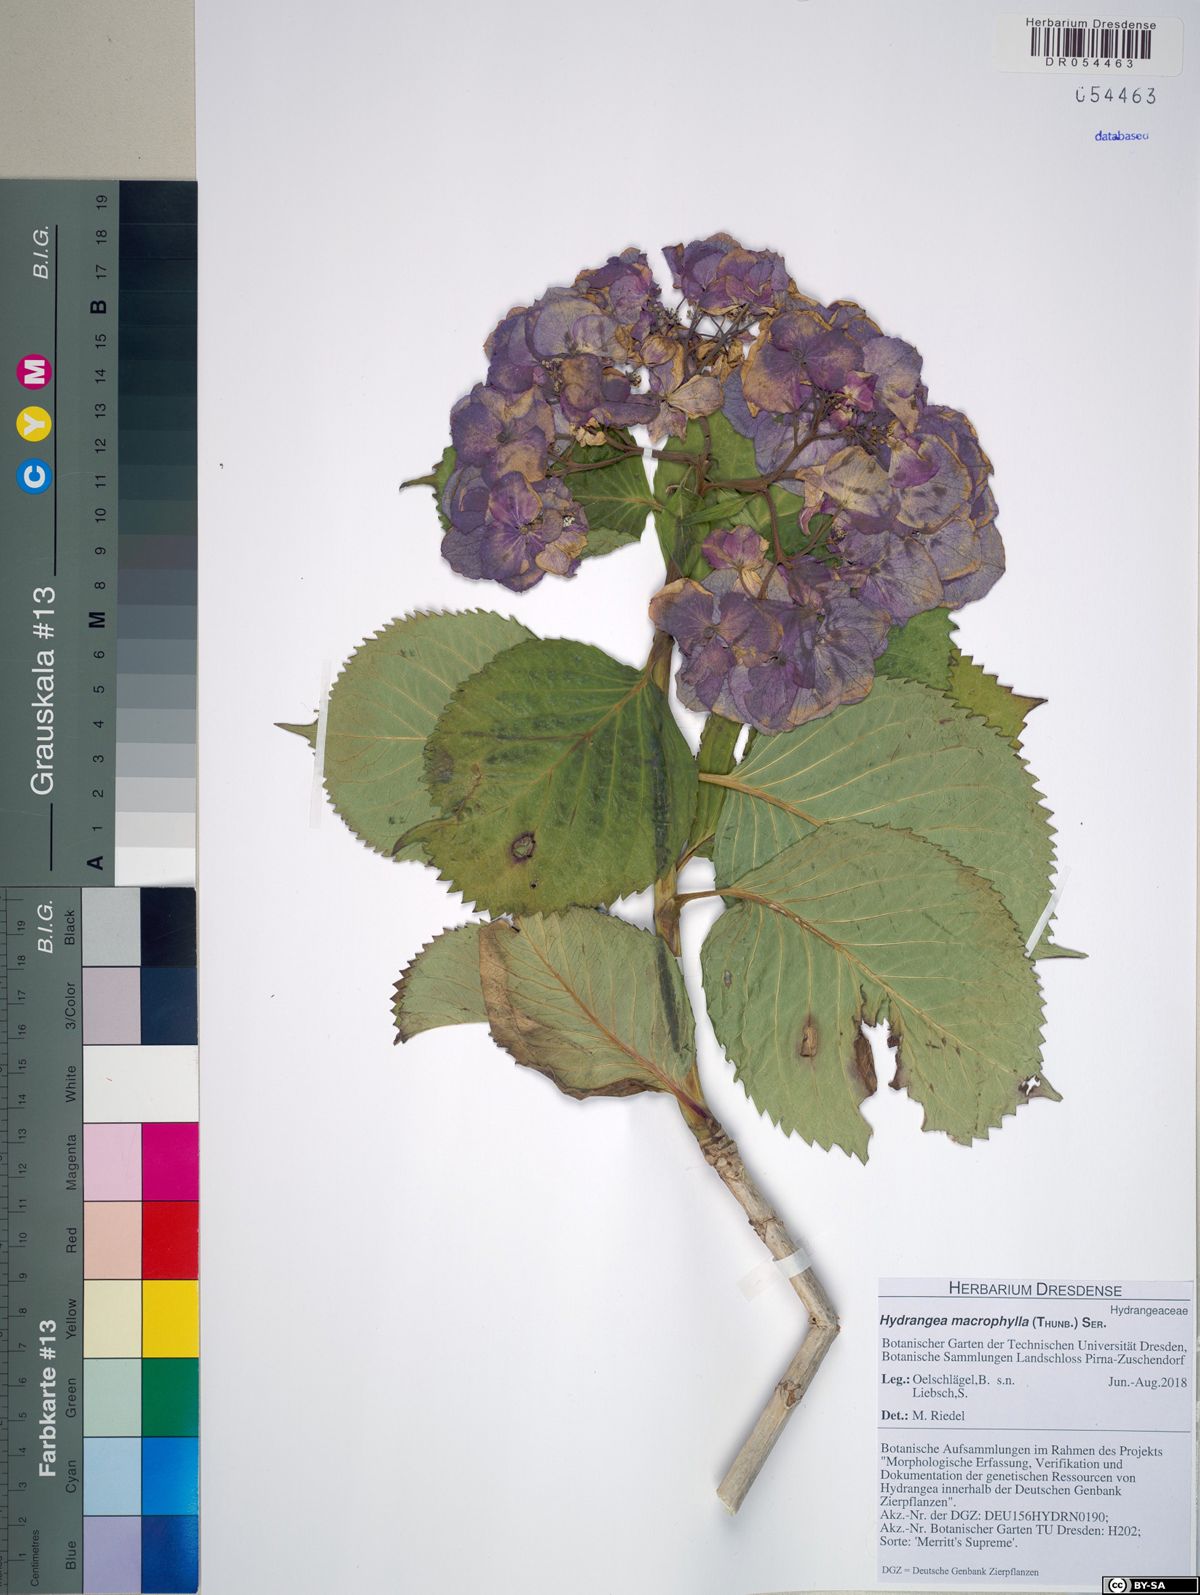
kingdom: Plantae
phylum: Tracheophyta
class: Magnoliopsida
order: Cornales
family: Hydrangeaceae
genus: Hydrangea
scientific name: Hydrangea macrophylla
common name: Hydrangea
